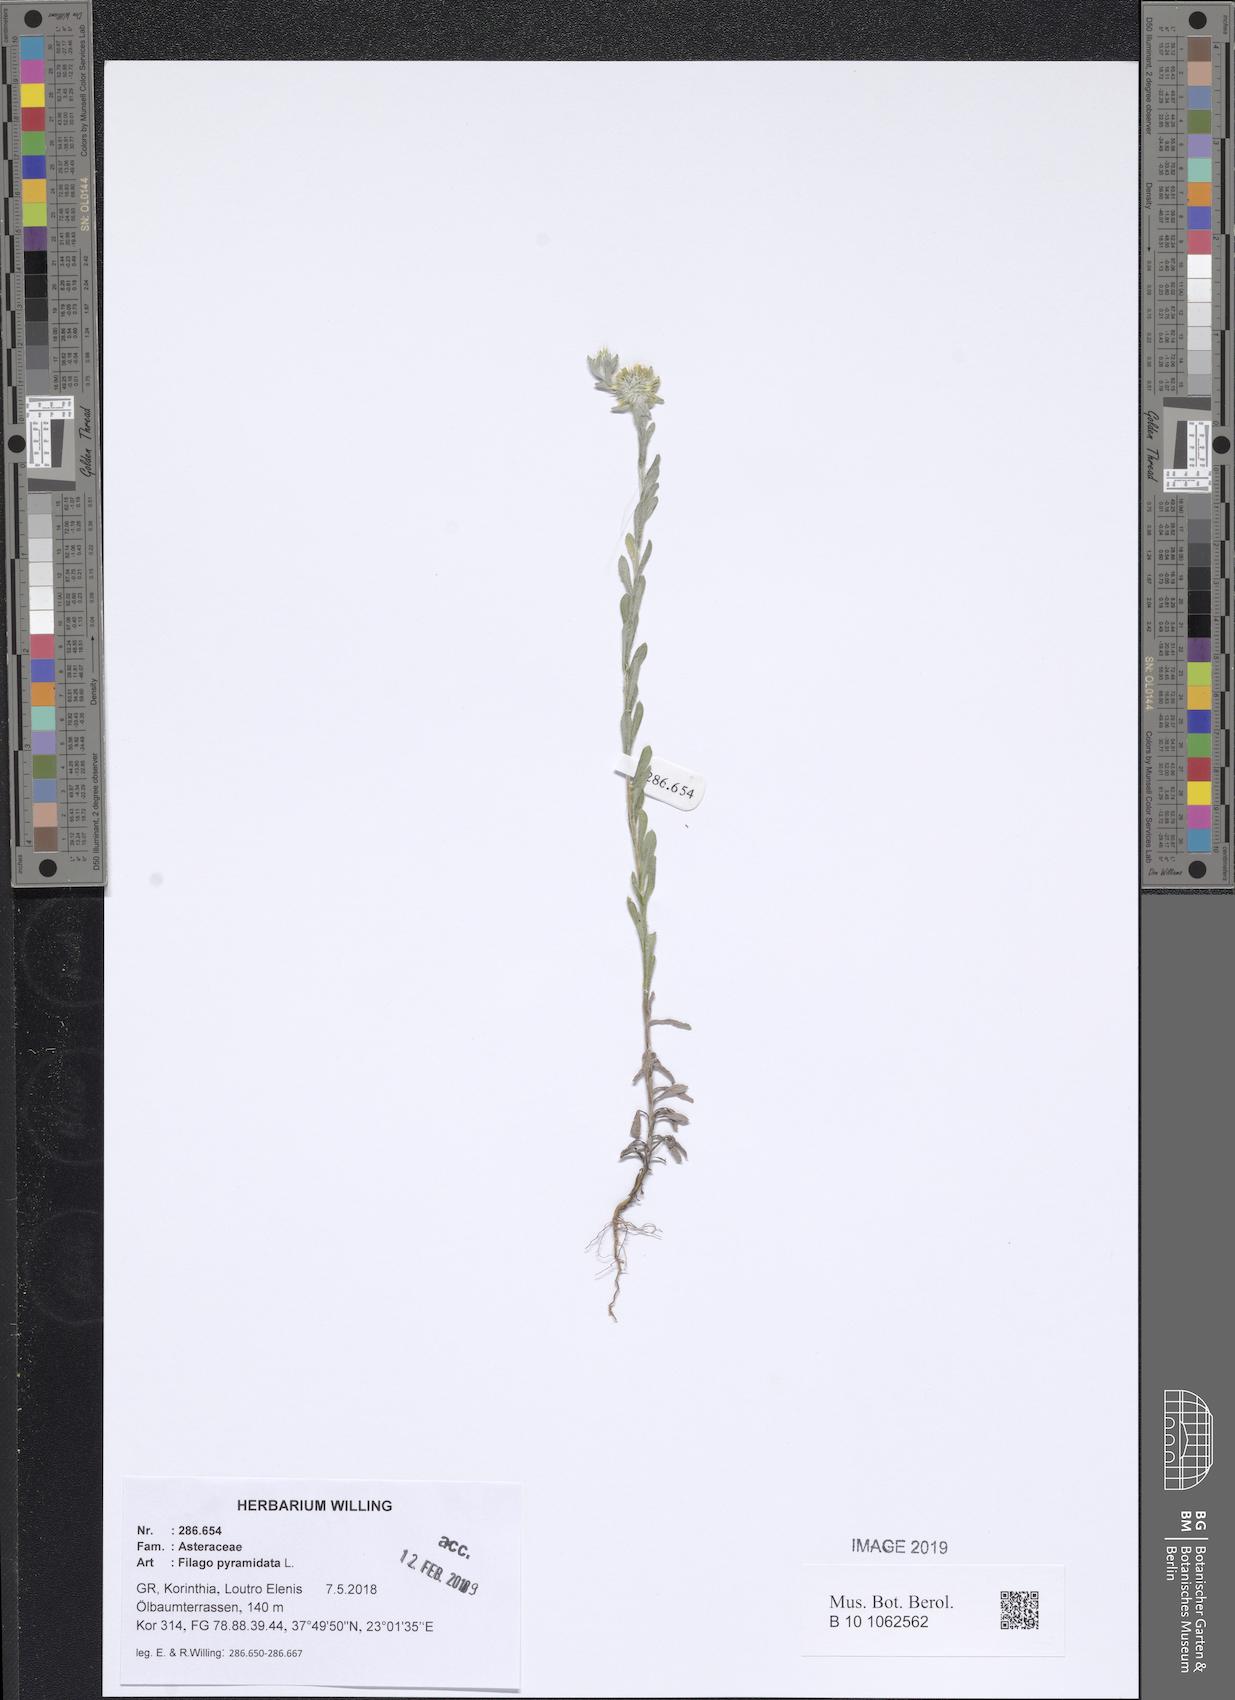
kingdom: Plantae
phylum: Tracheophyta
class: Magnoliopsida
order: Asterales
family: Asteraceae
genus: Filago
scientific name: Filago pyramidata
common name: Broad-leaved cudweed
